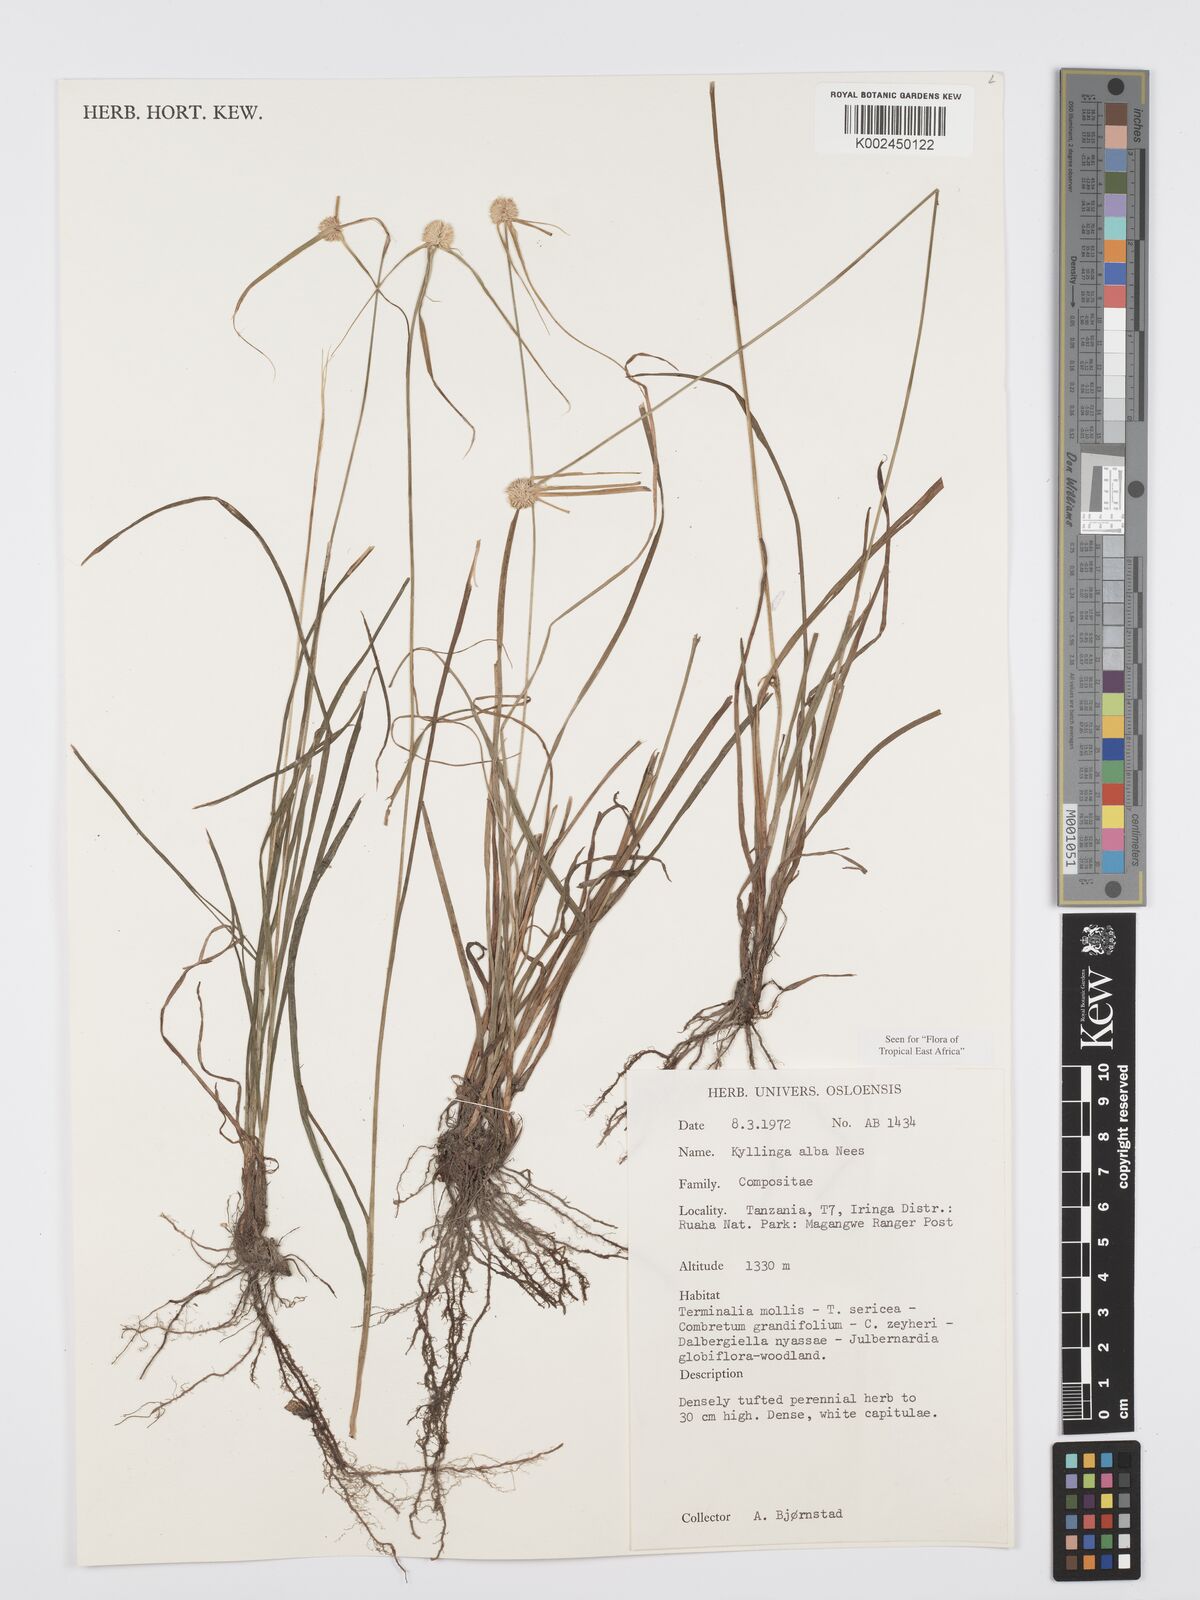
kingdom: Plantae
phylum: Tracheophyta
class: Liliopsida
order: Poales
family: Cyperaceae
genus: Cyperus
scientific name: Cyperus
